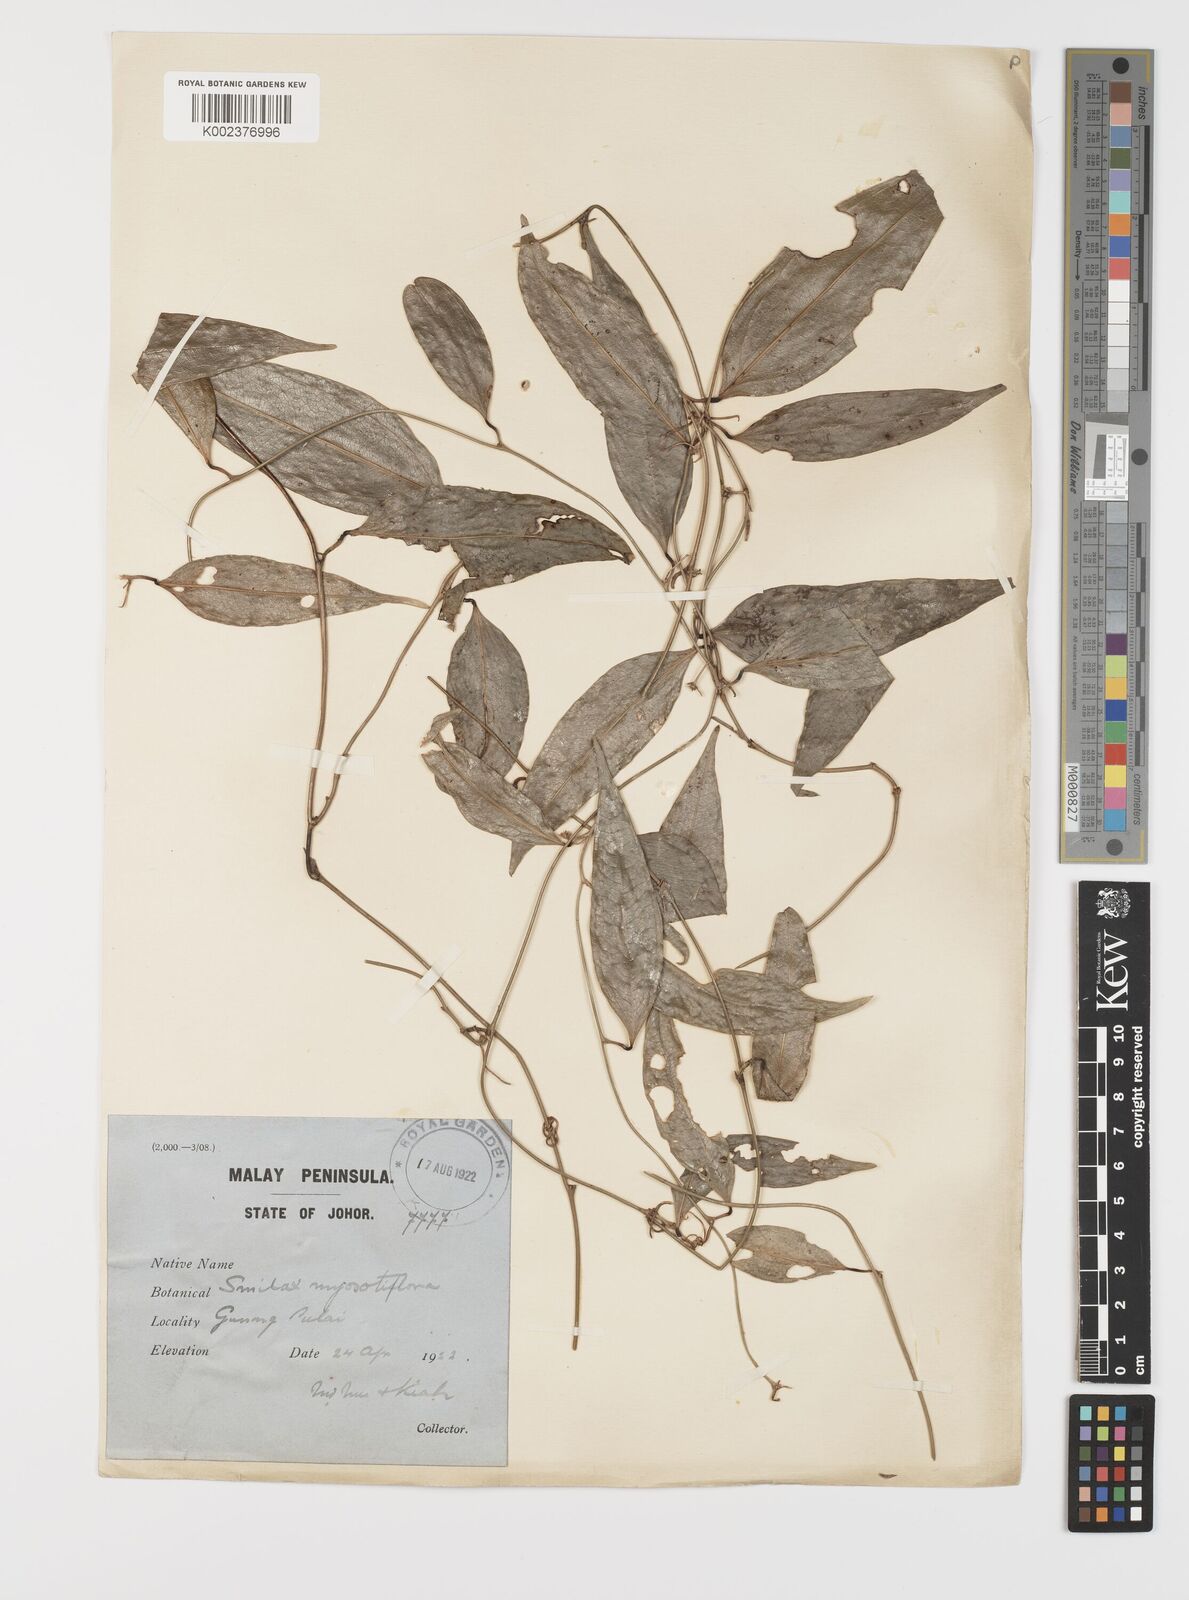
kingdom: Plantae
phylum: Tracheophyta
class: Liliopsida
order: Liliales
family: Smilacaceae
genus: Smilax
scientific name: Smilax myosotiflora
